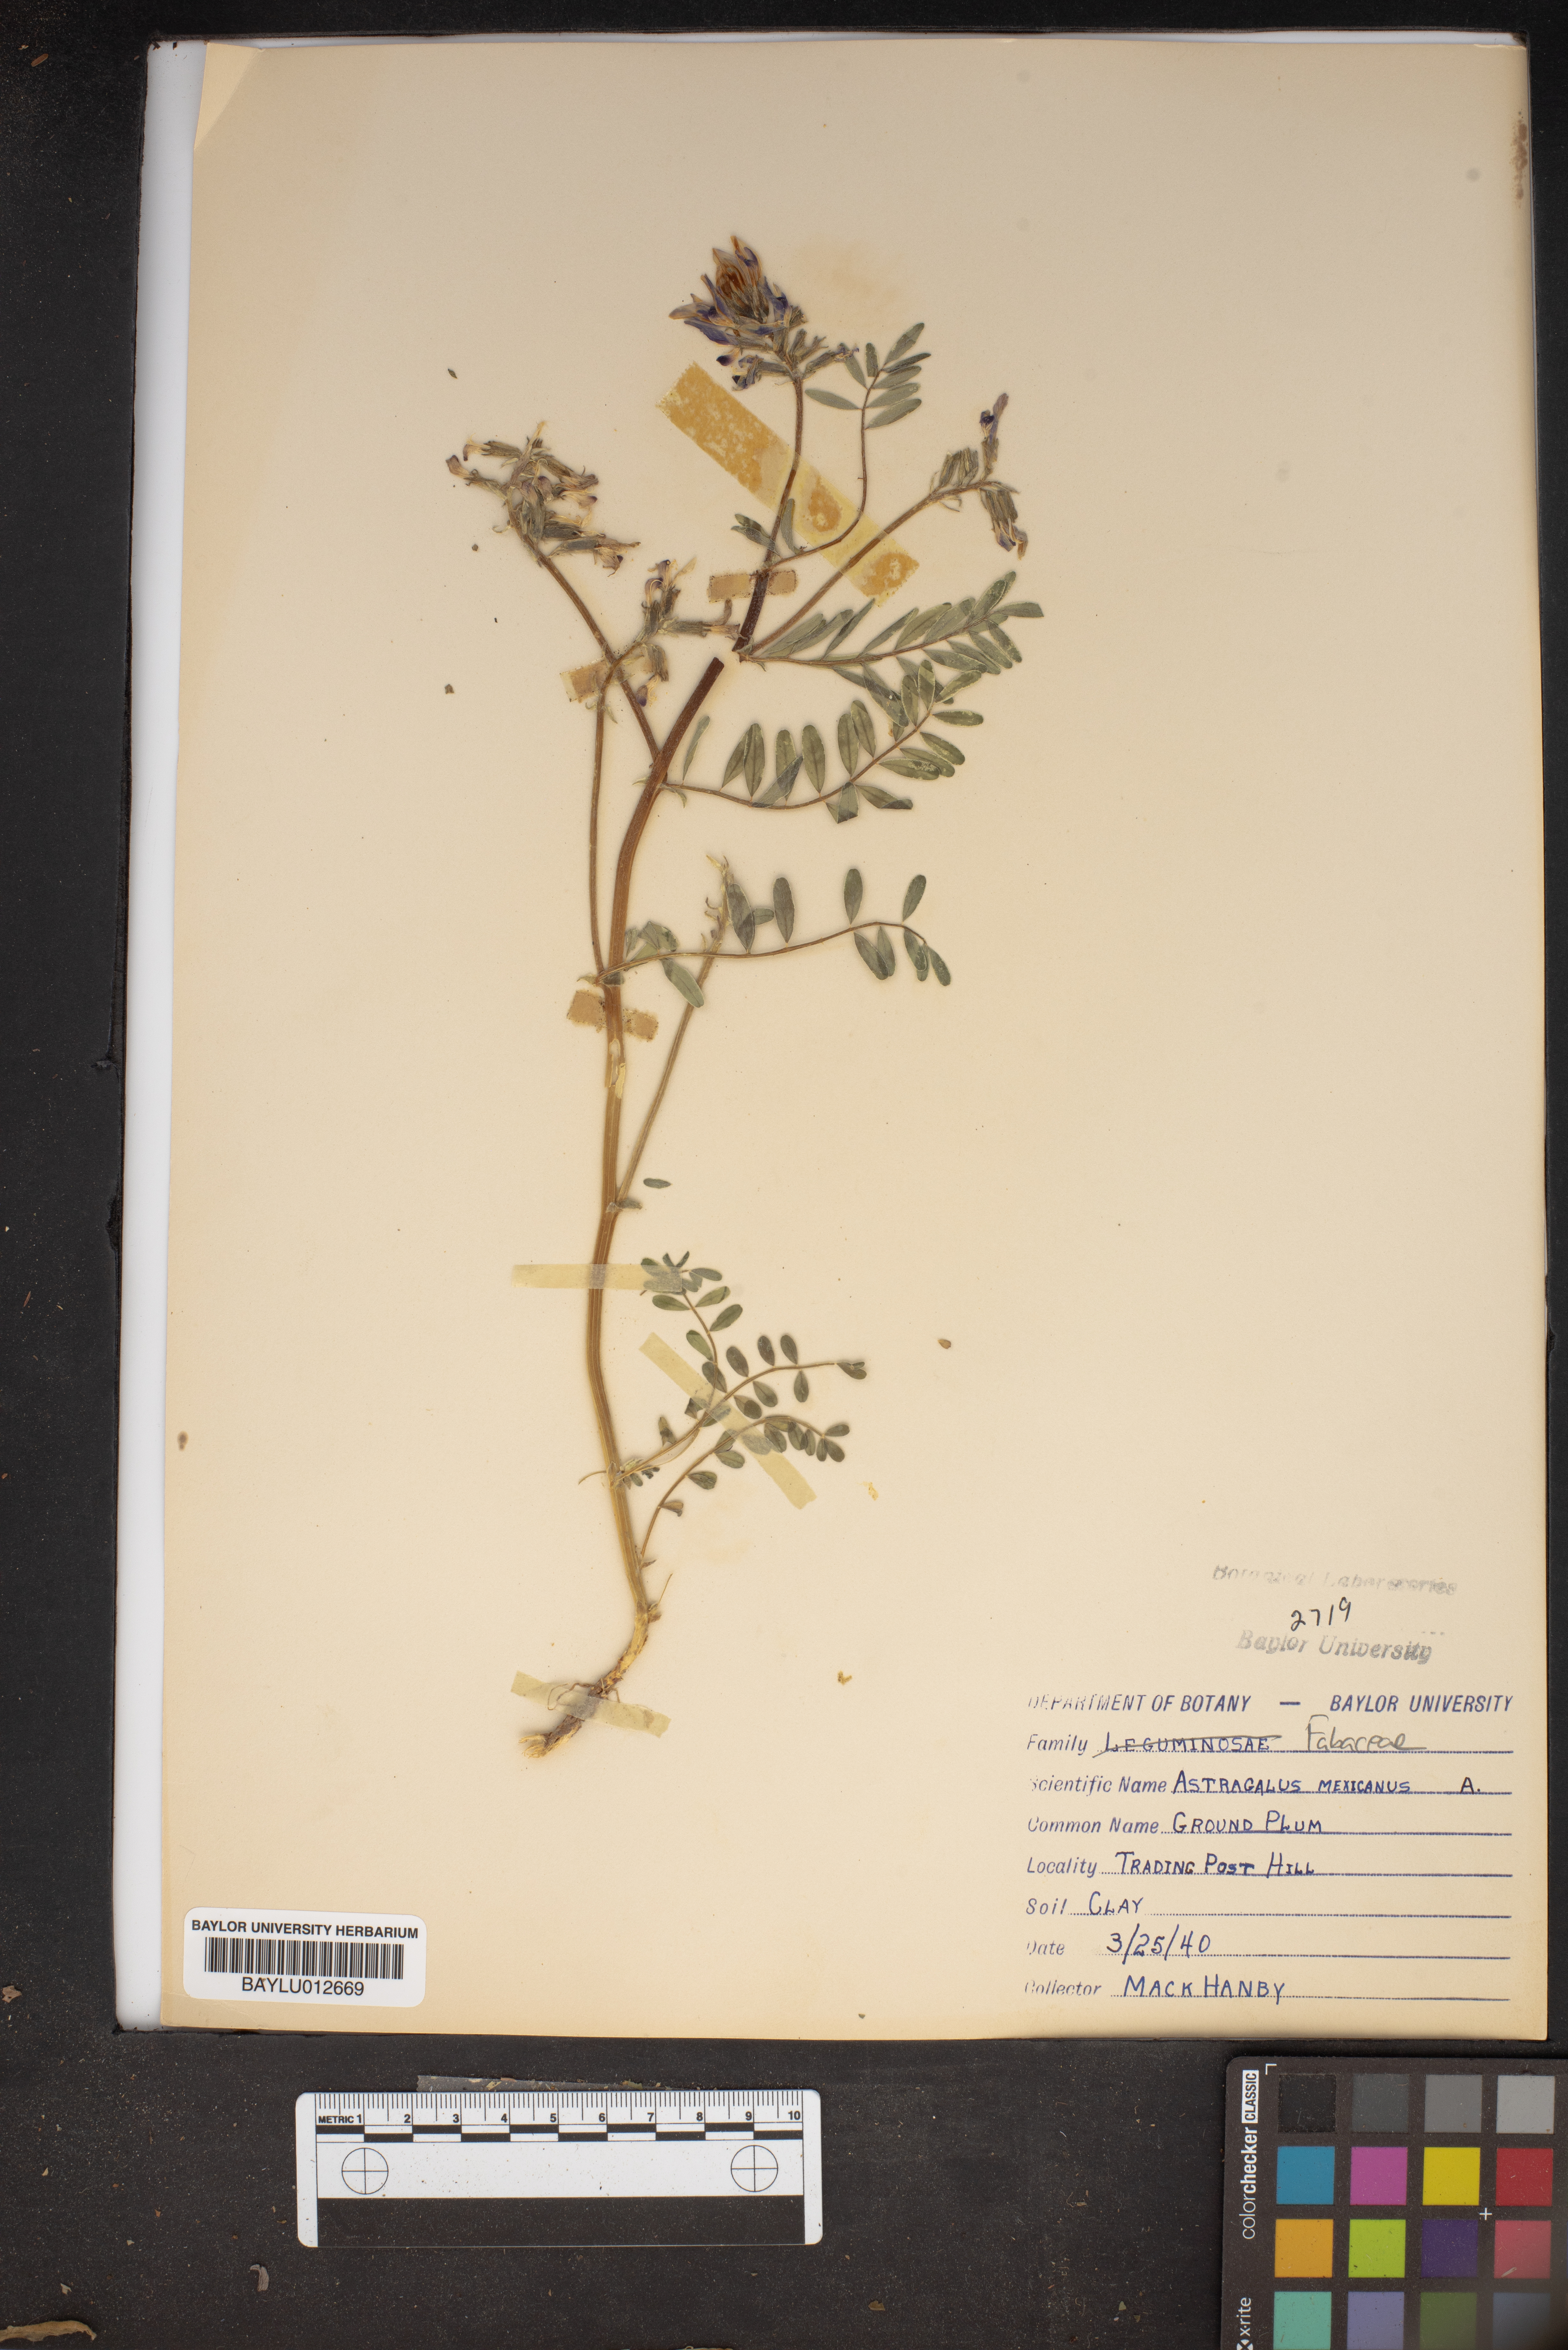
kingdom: Plantae
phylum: Tracheophyta
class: Magnoliopsida
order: Fabales
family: Fabaceae
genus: Astragalus
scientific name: Astragalus mexicanus
